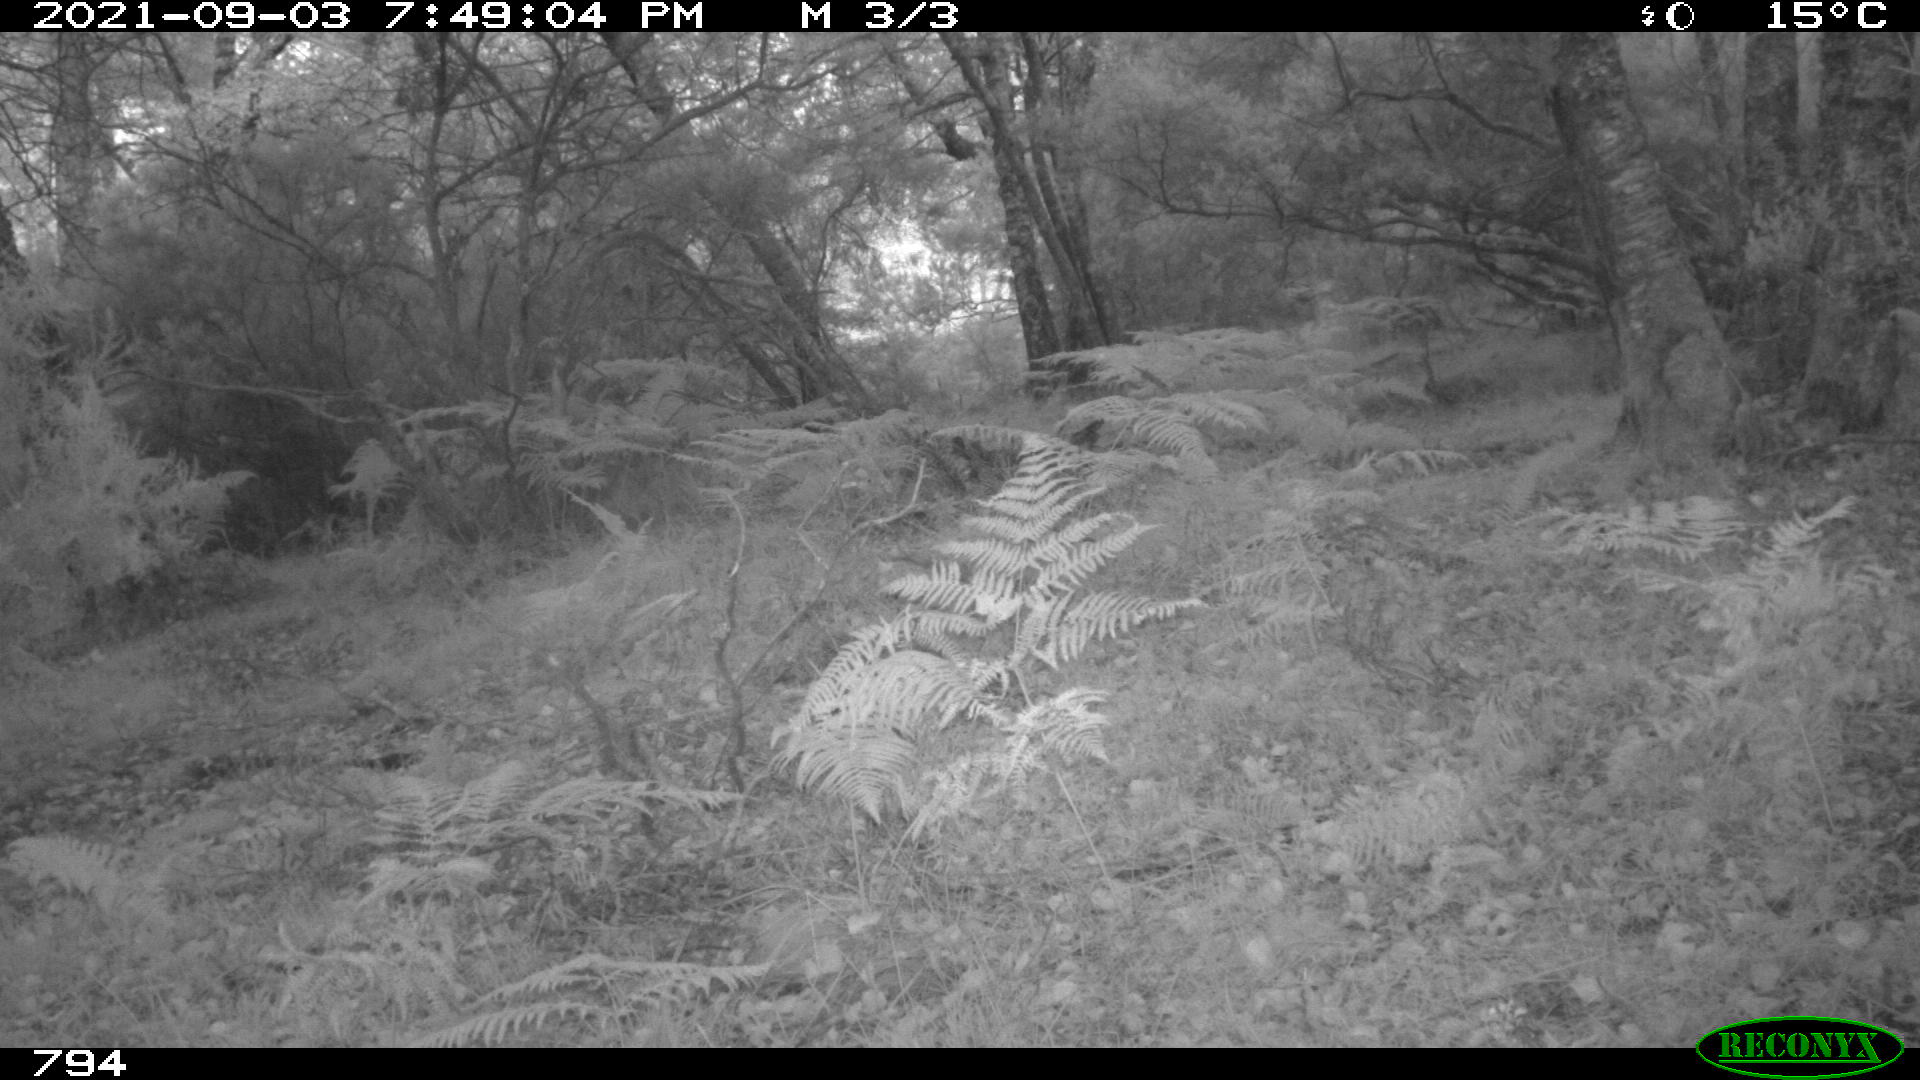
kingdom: Animalia
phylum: Chordata
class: Mammalia
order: Artiodactyla
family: Suidae
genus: Sus
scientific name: Sus scrofa
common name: Wild boar
